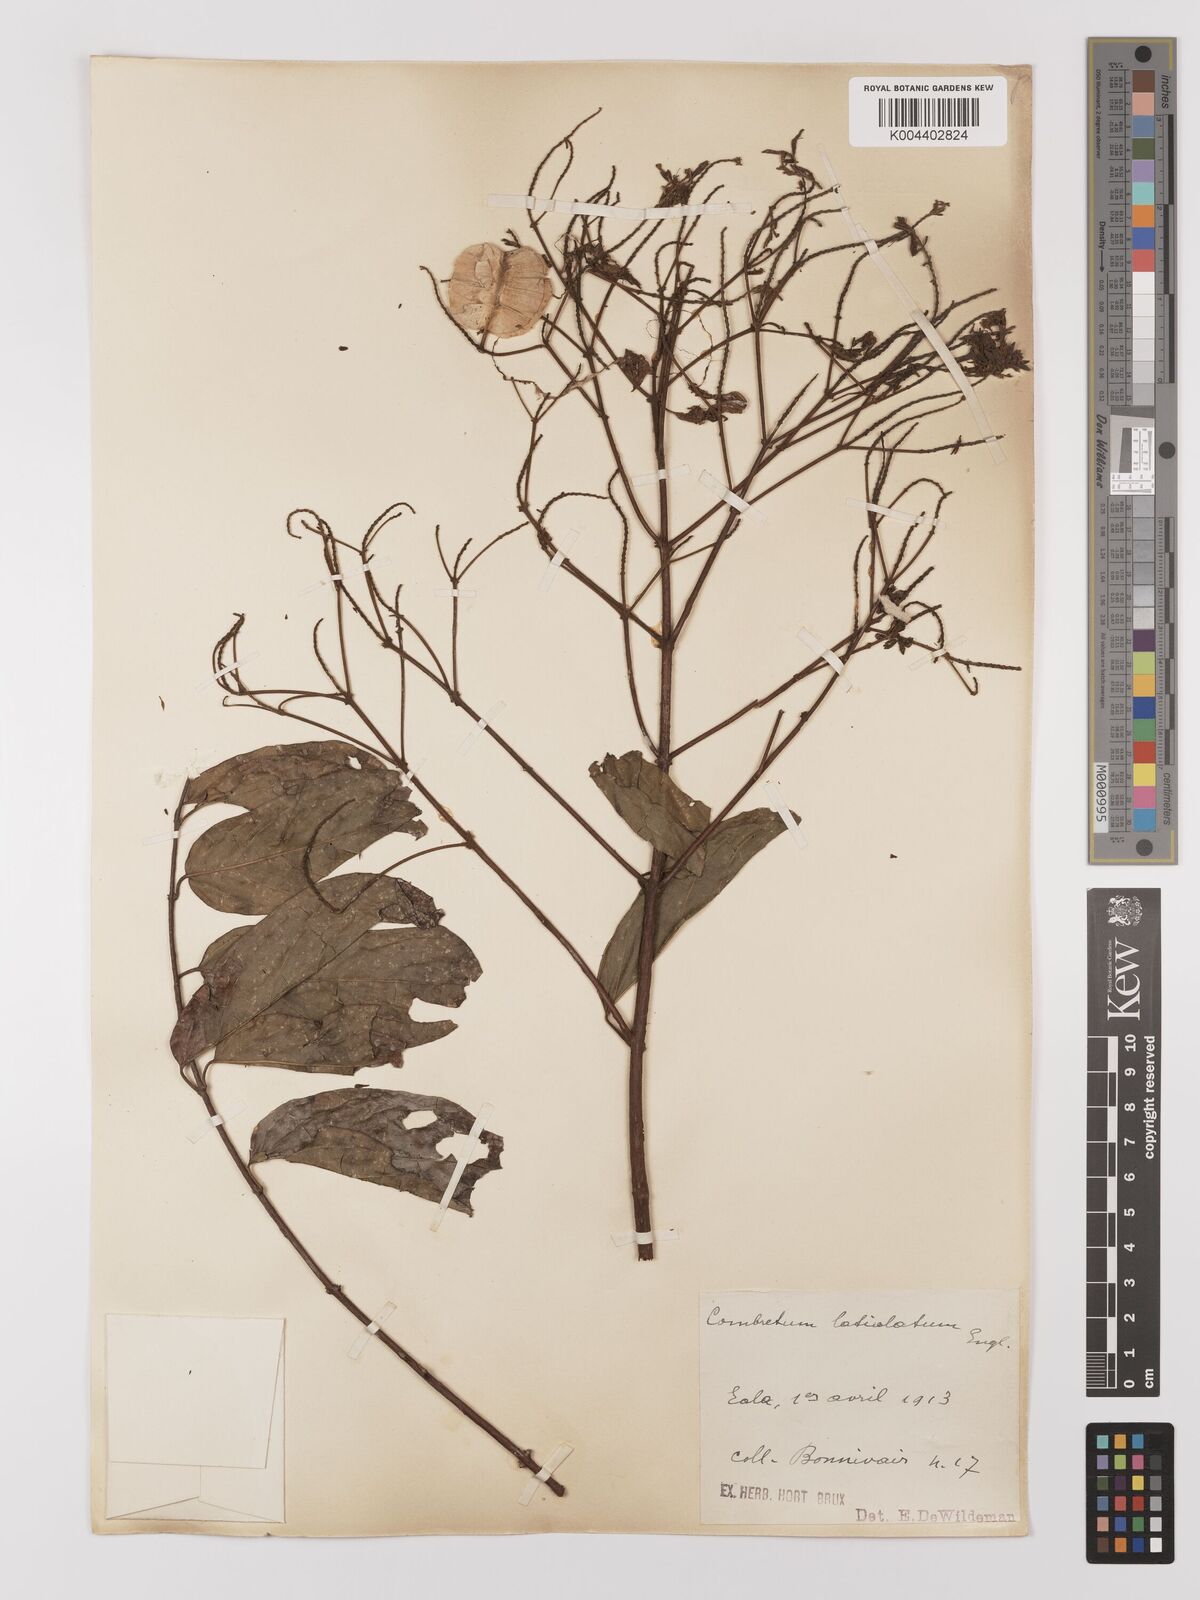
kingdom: Plantae
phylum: Tracheophyta
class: Magnoliopsida
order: Myrtales
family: Combretaceae
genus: Combretum
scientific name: Combretum latialatum
